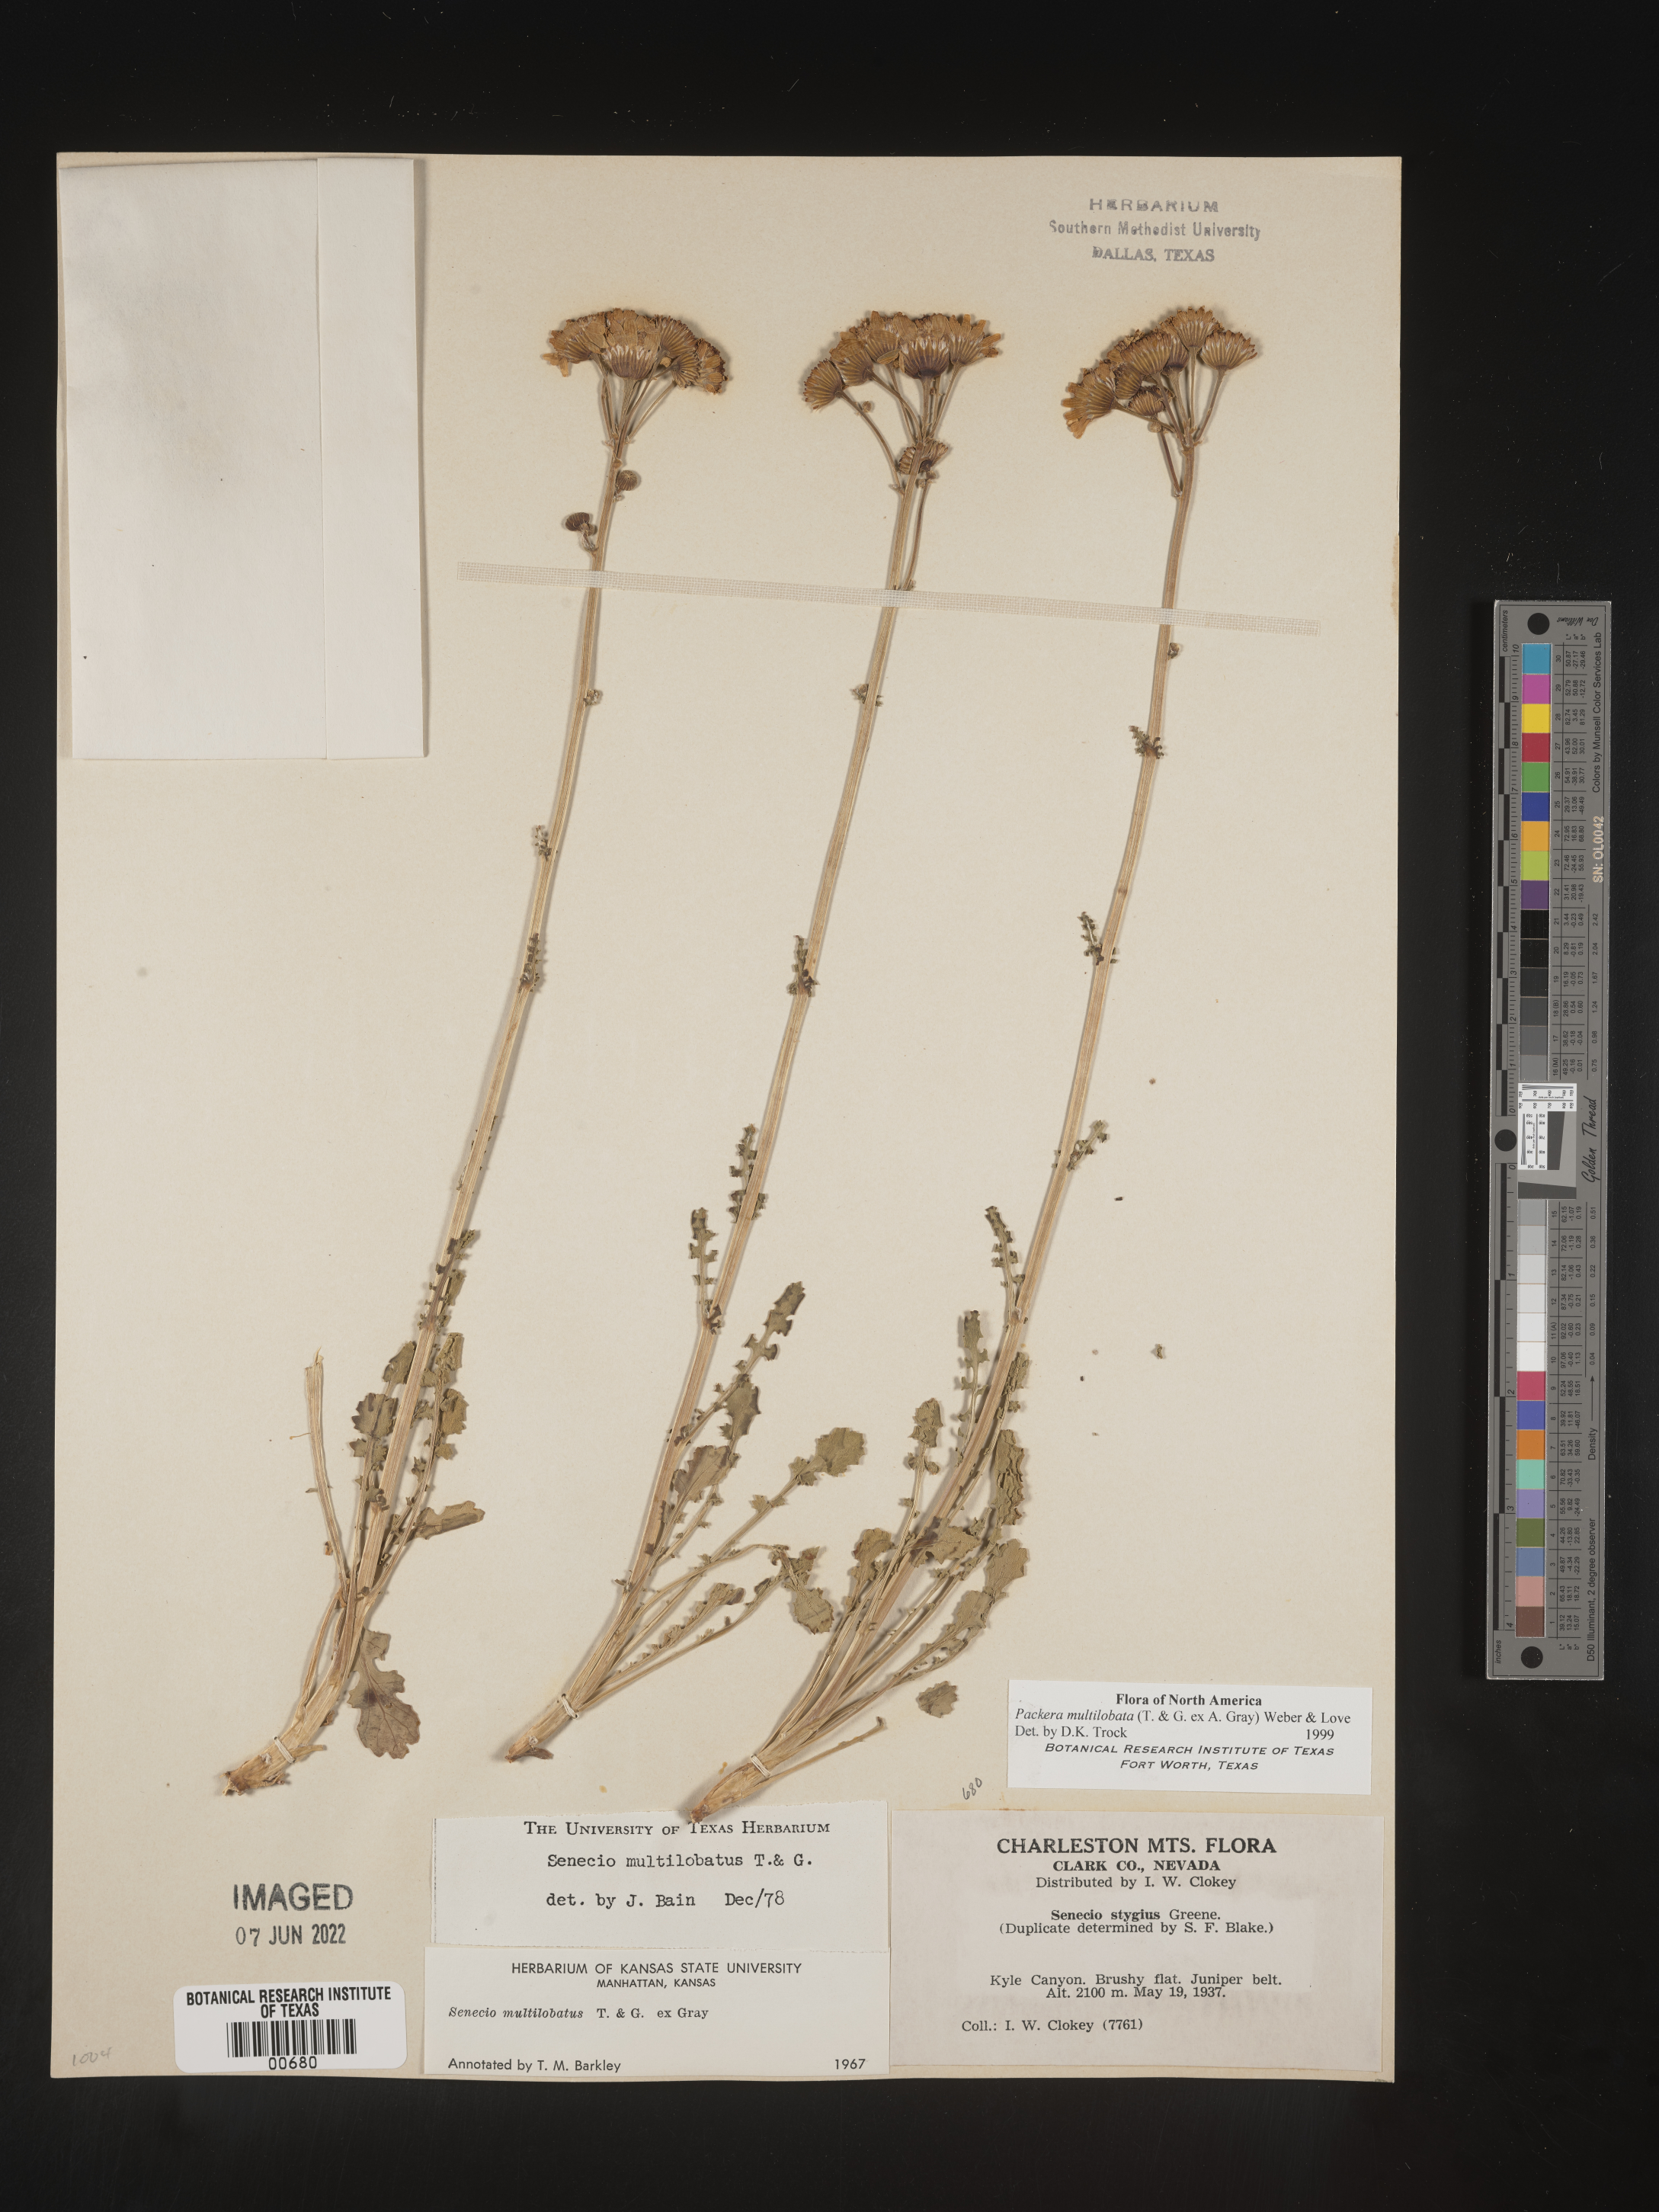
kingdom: Plantae
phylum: Tracheophyta
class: Magnoliopsida
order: Asterales
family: Asteraceae
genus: Packera
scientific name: Packera multilobata
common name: Lobe-leaf groundsel
